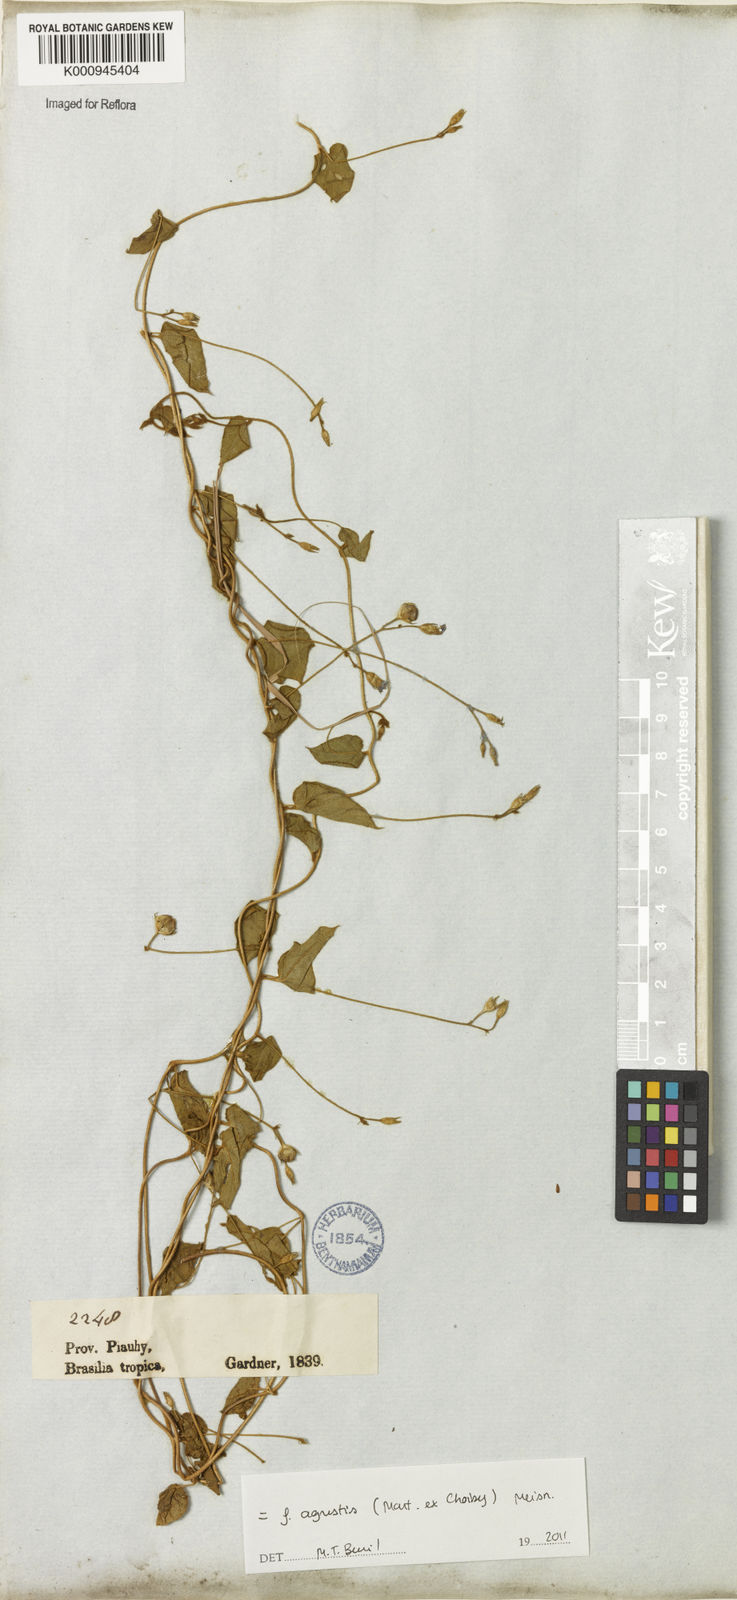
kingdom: Plantae
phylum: Tracheophyta
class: Magnoliopsida
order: Solanales
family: Convolvulaceae
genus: Jacquemontia
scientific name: Jacquemontia agrestis
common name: Midnightblue clustervine
